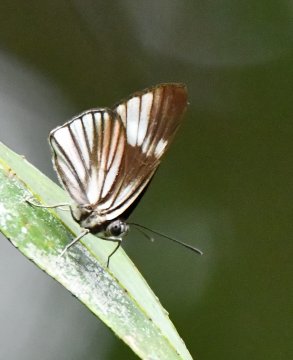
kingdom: Animalia
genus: Setabis
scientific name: Setabis lagus
